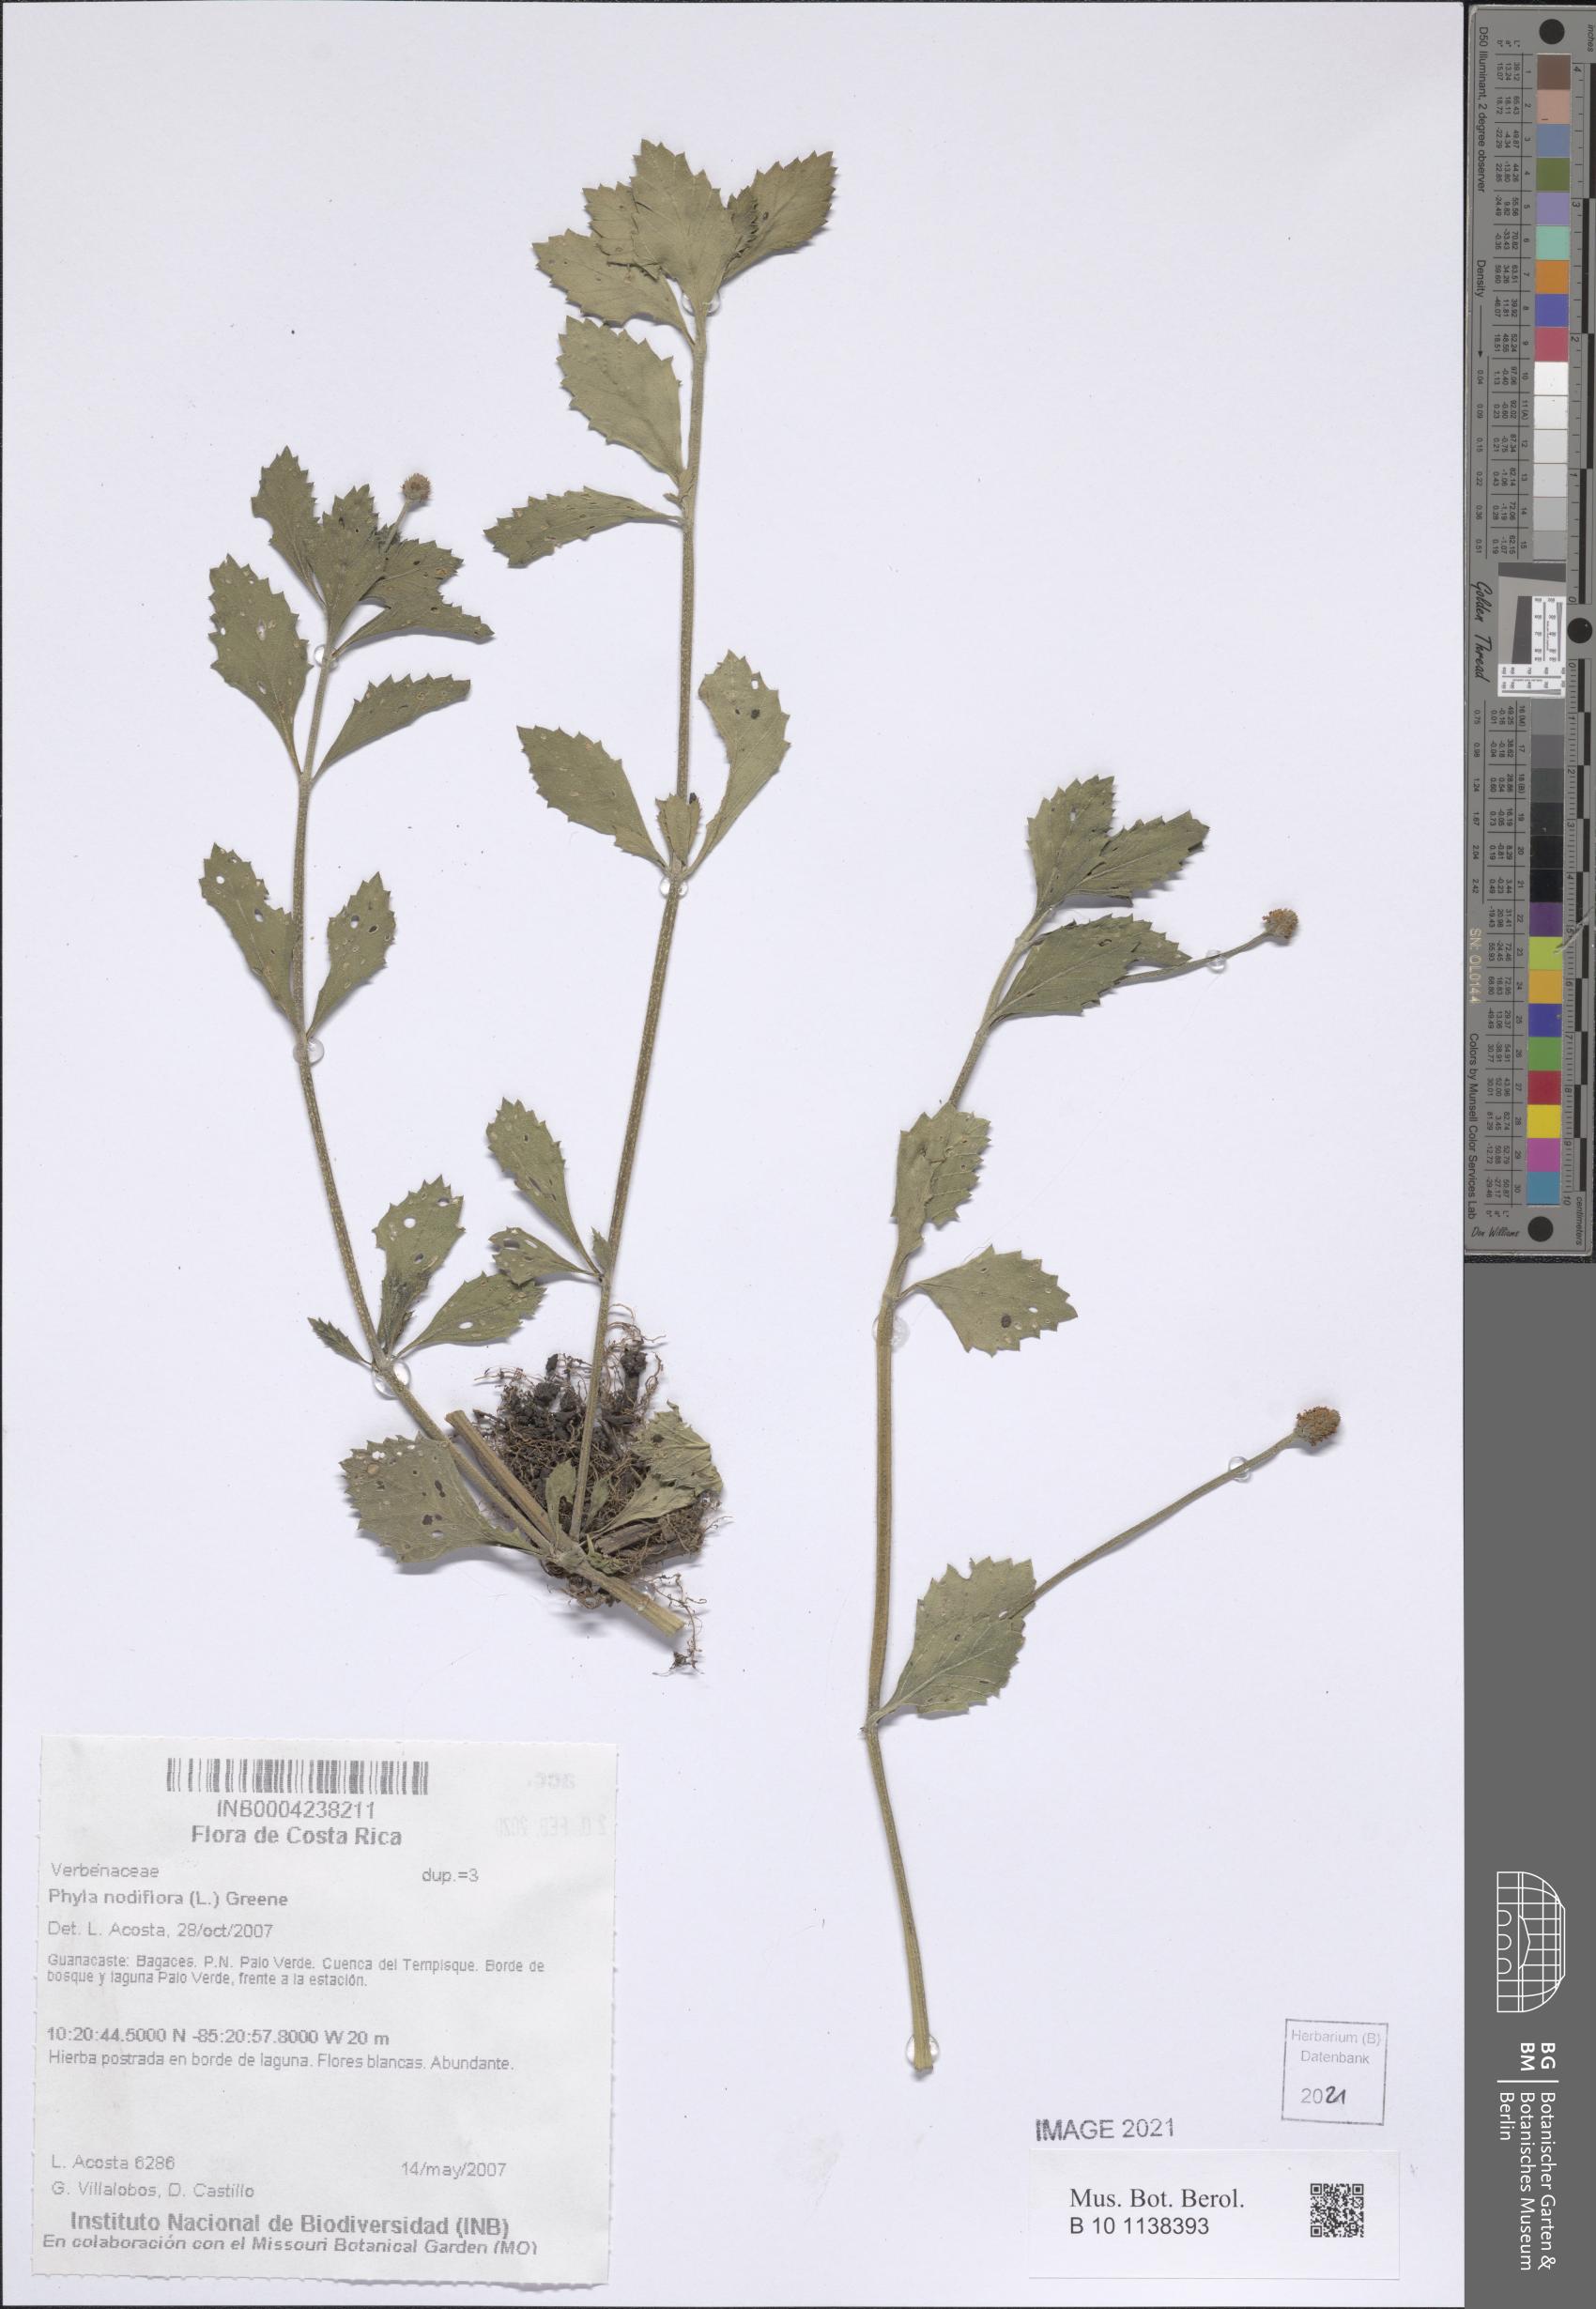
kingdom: Plantae
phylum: Tracheophyta
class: Magnoliopsida
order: Lamiales
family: Verbenaceae
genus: Phyla
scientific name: Phyla nodiflora
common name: Frogfruit
